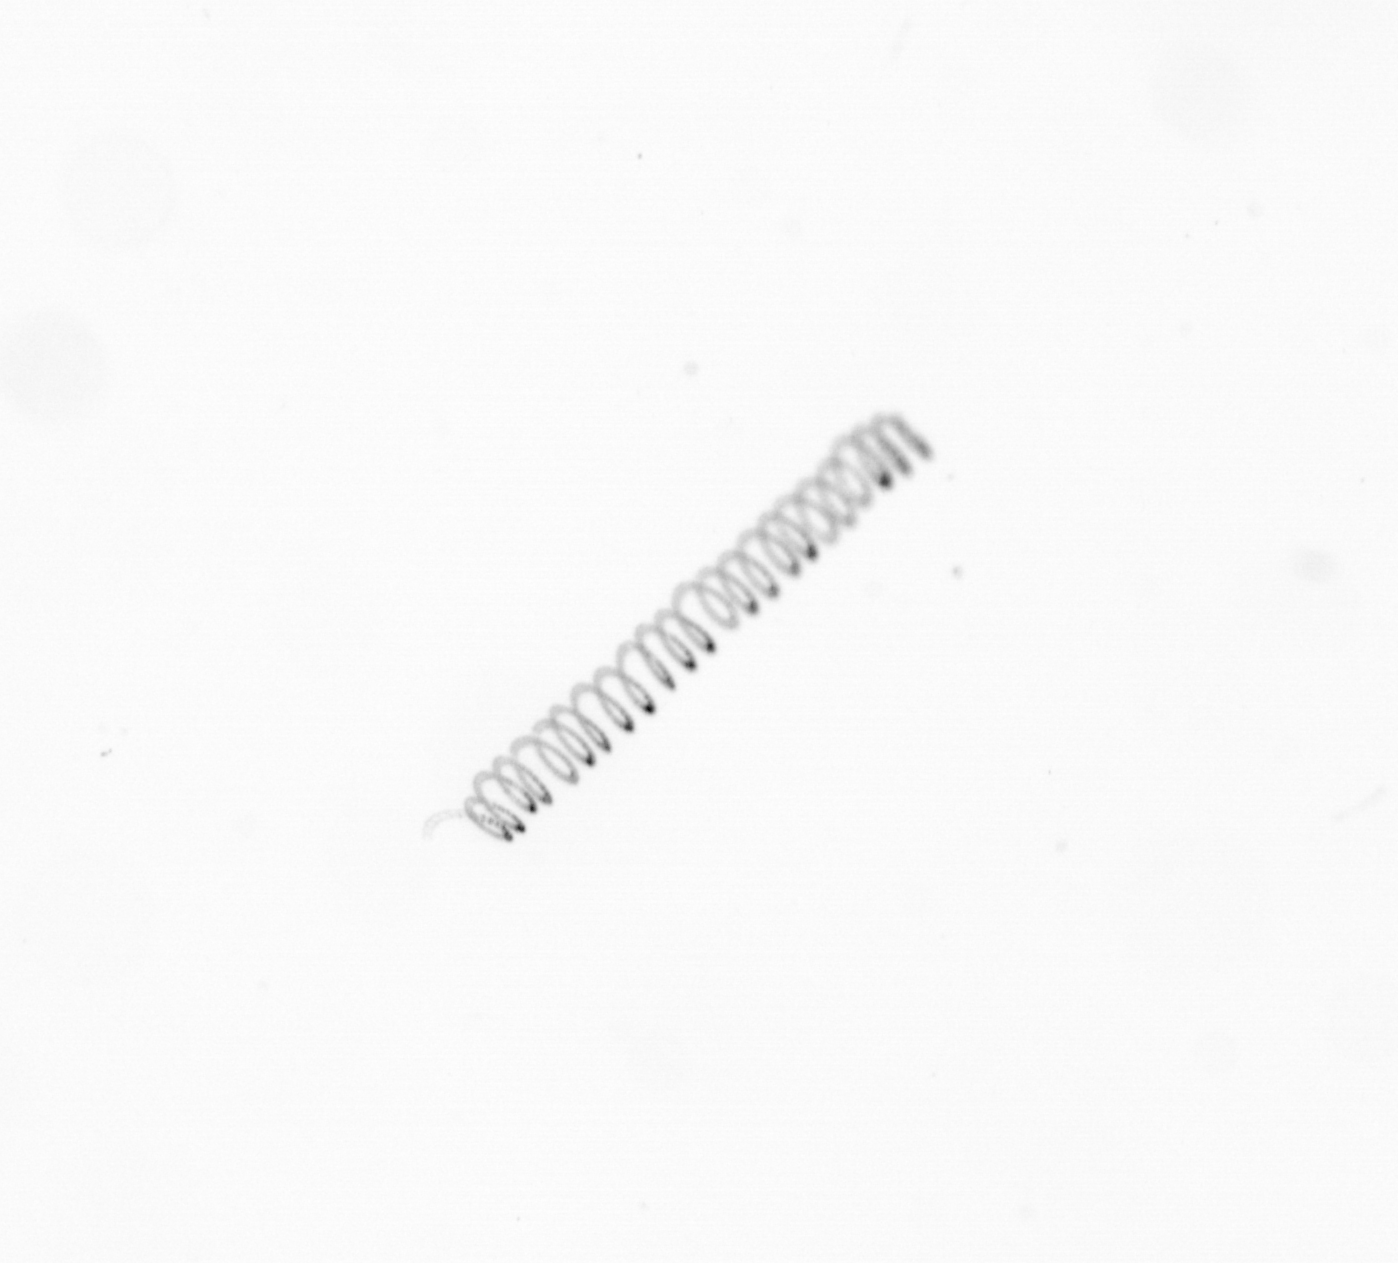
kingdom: Chromista
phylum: Ochrophyta
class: Bacillariophyceae
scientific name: Bacillariophyceae
